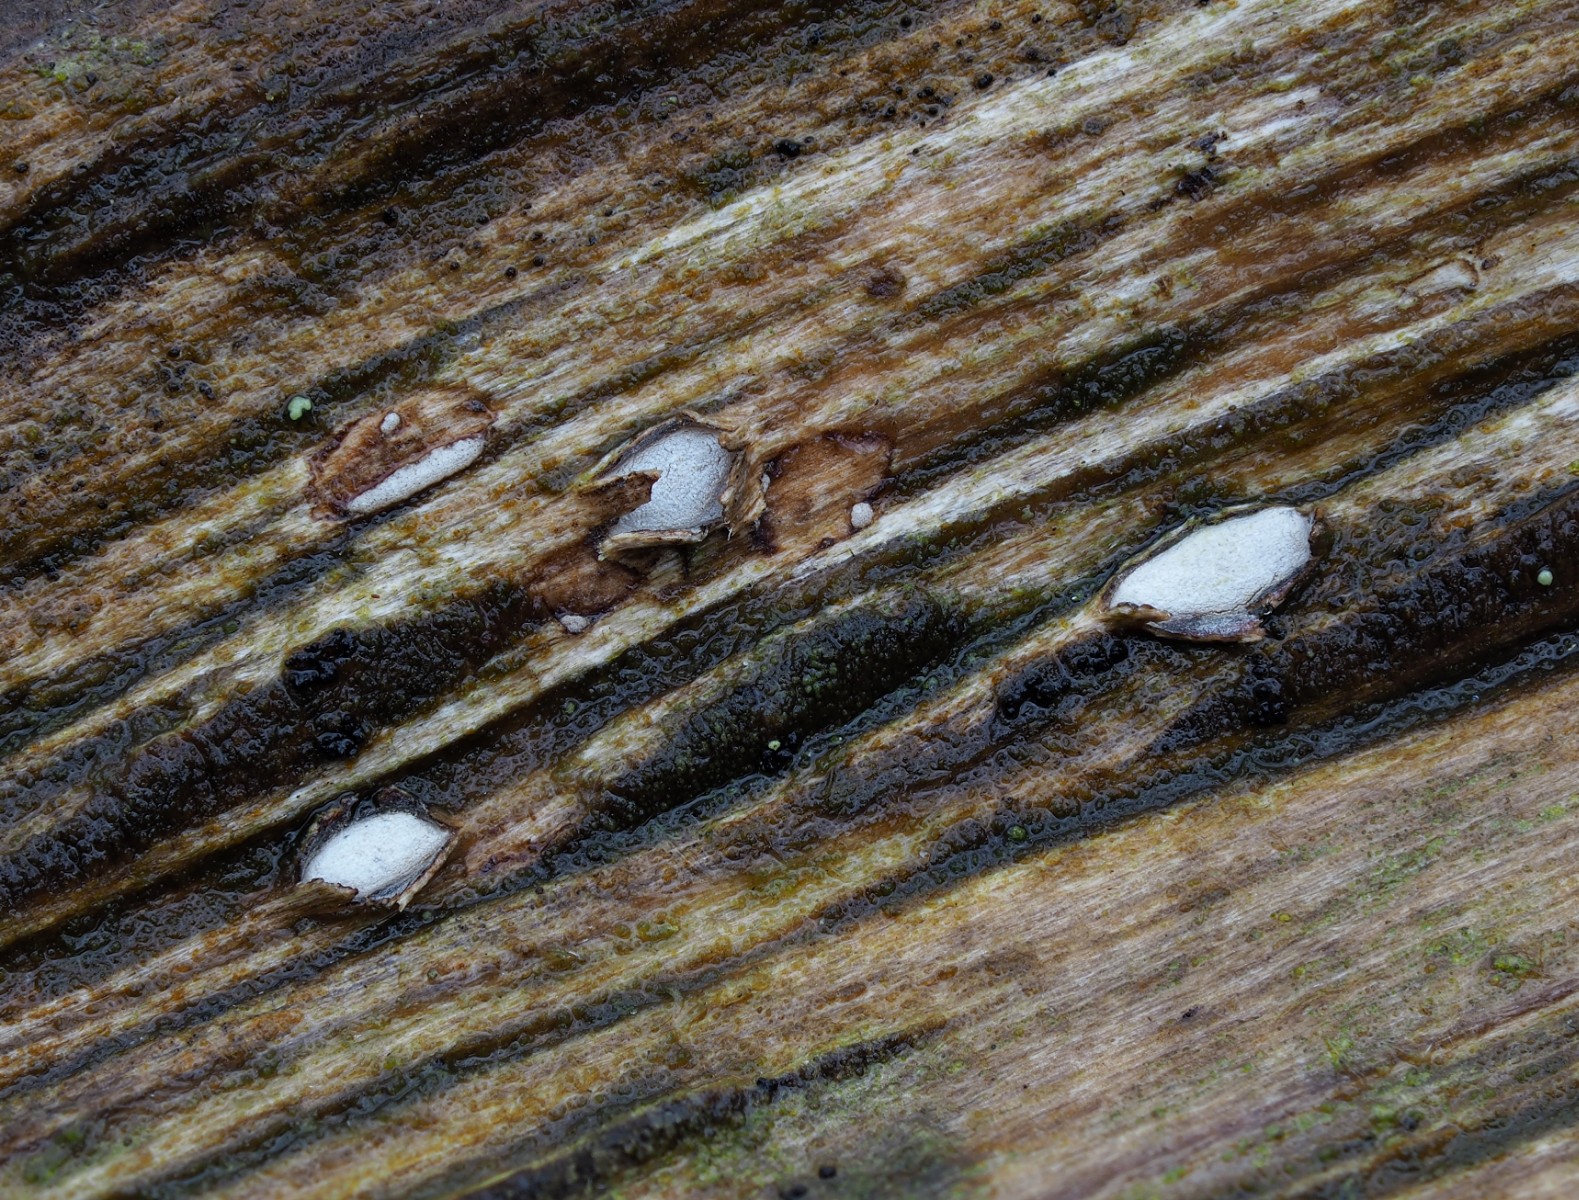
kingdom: Fungi
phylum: Ascomycota
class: Leotiomycetes
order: Chaetomellales
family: Marthamycetaceae
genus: Propolis
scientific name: Propolis farinosa
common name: almindelig vedsprængerskive
